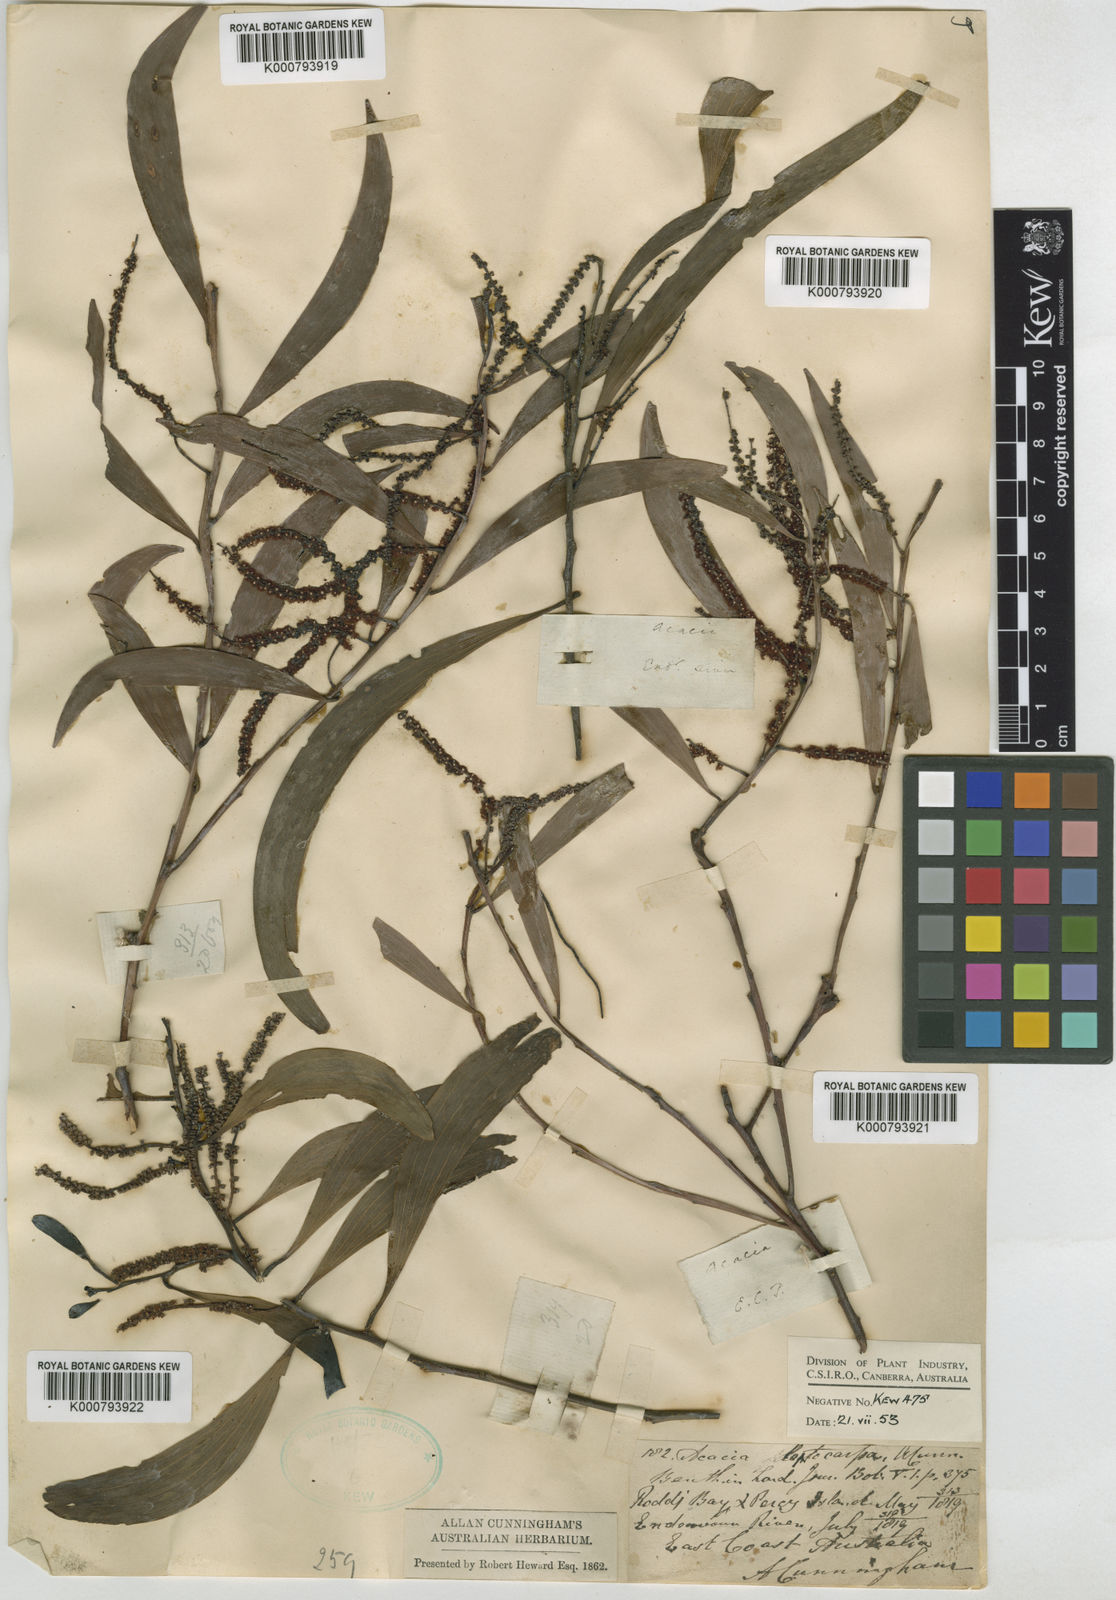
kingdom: Plantae
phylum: Tracheophyta
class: Magnoliopsida
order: Fabales
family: Fabaceae
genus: Acacia
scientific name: Acacia leptocarpa
